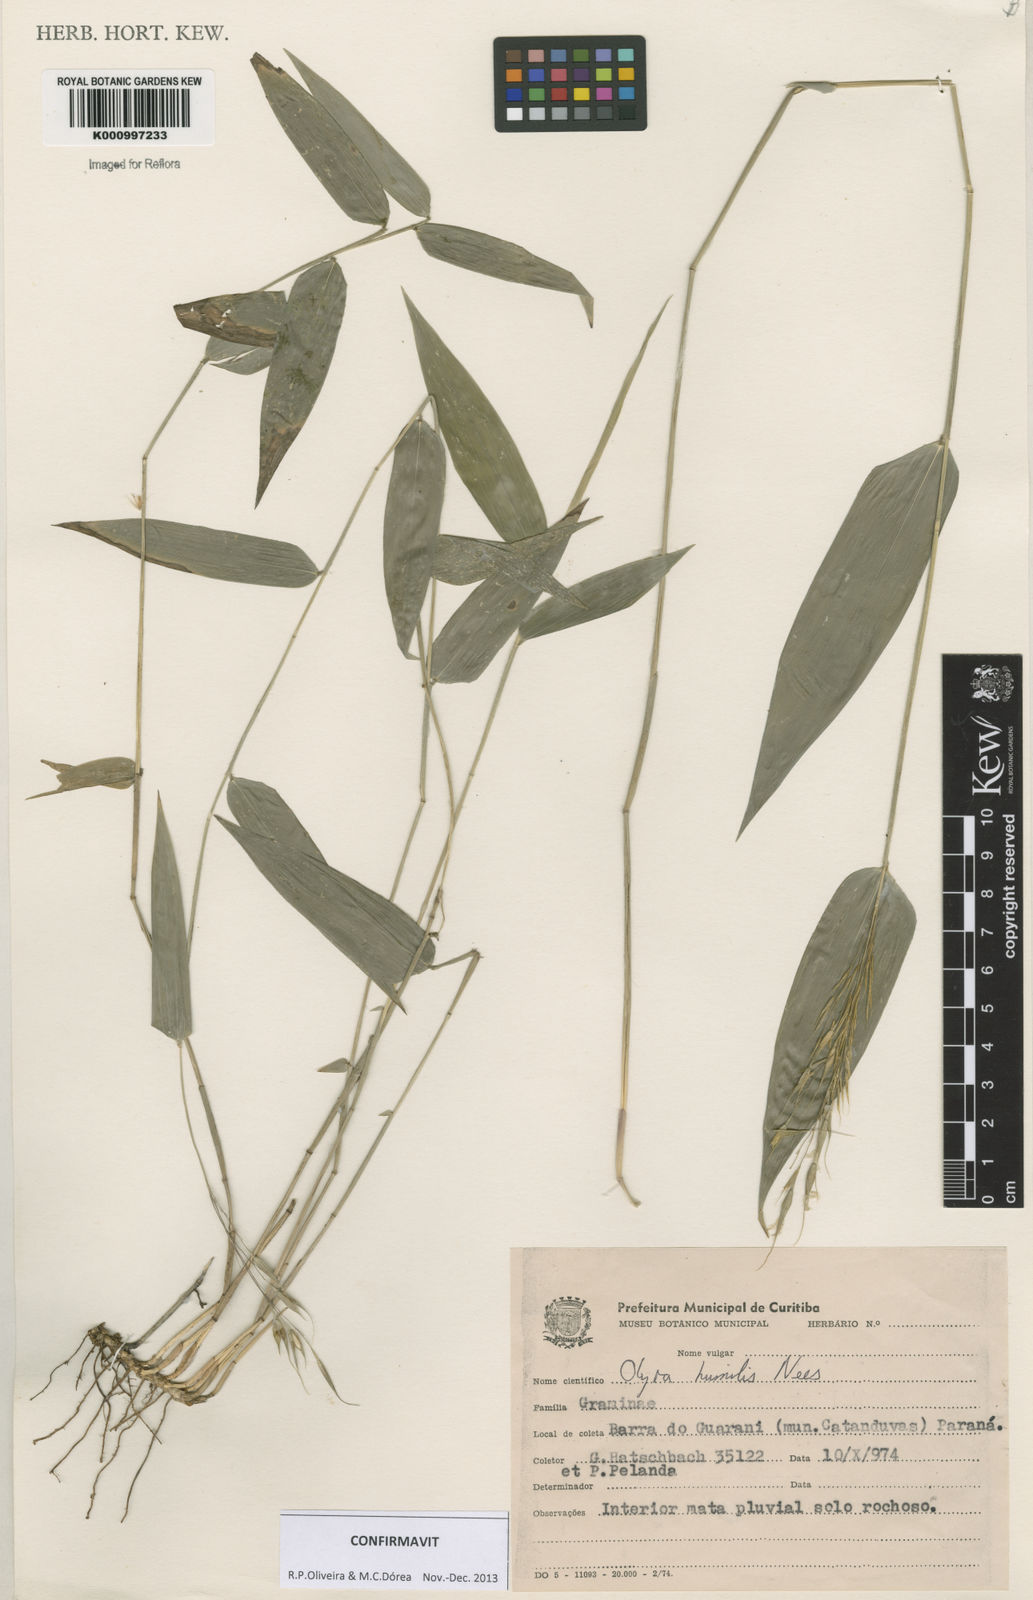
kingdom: Plantae
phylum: Tracheophyta
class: Liliopsida
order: Poales
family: Poaceae
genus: Olyra
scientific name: Olyra humilis
